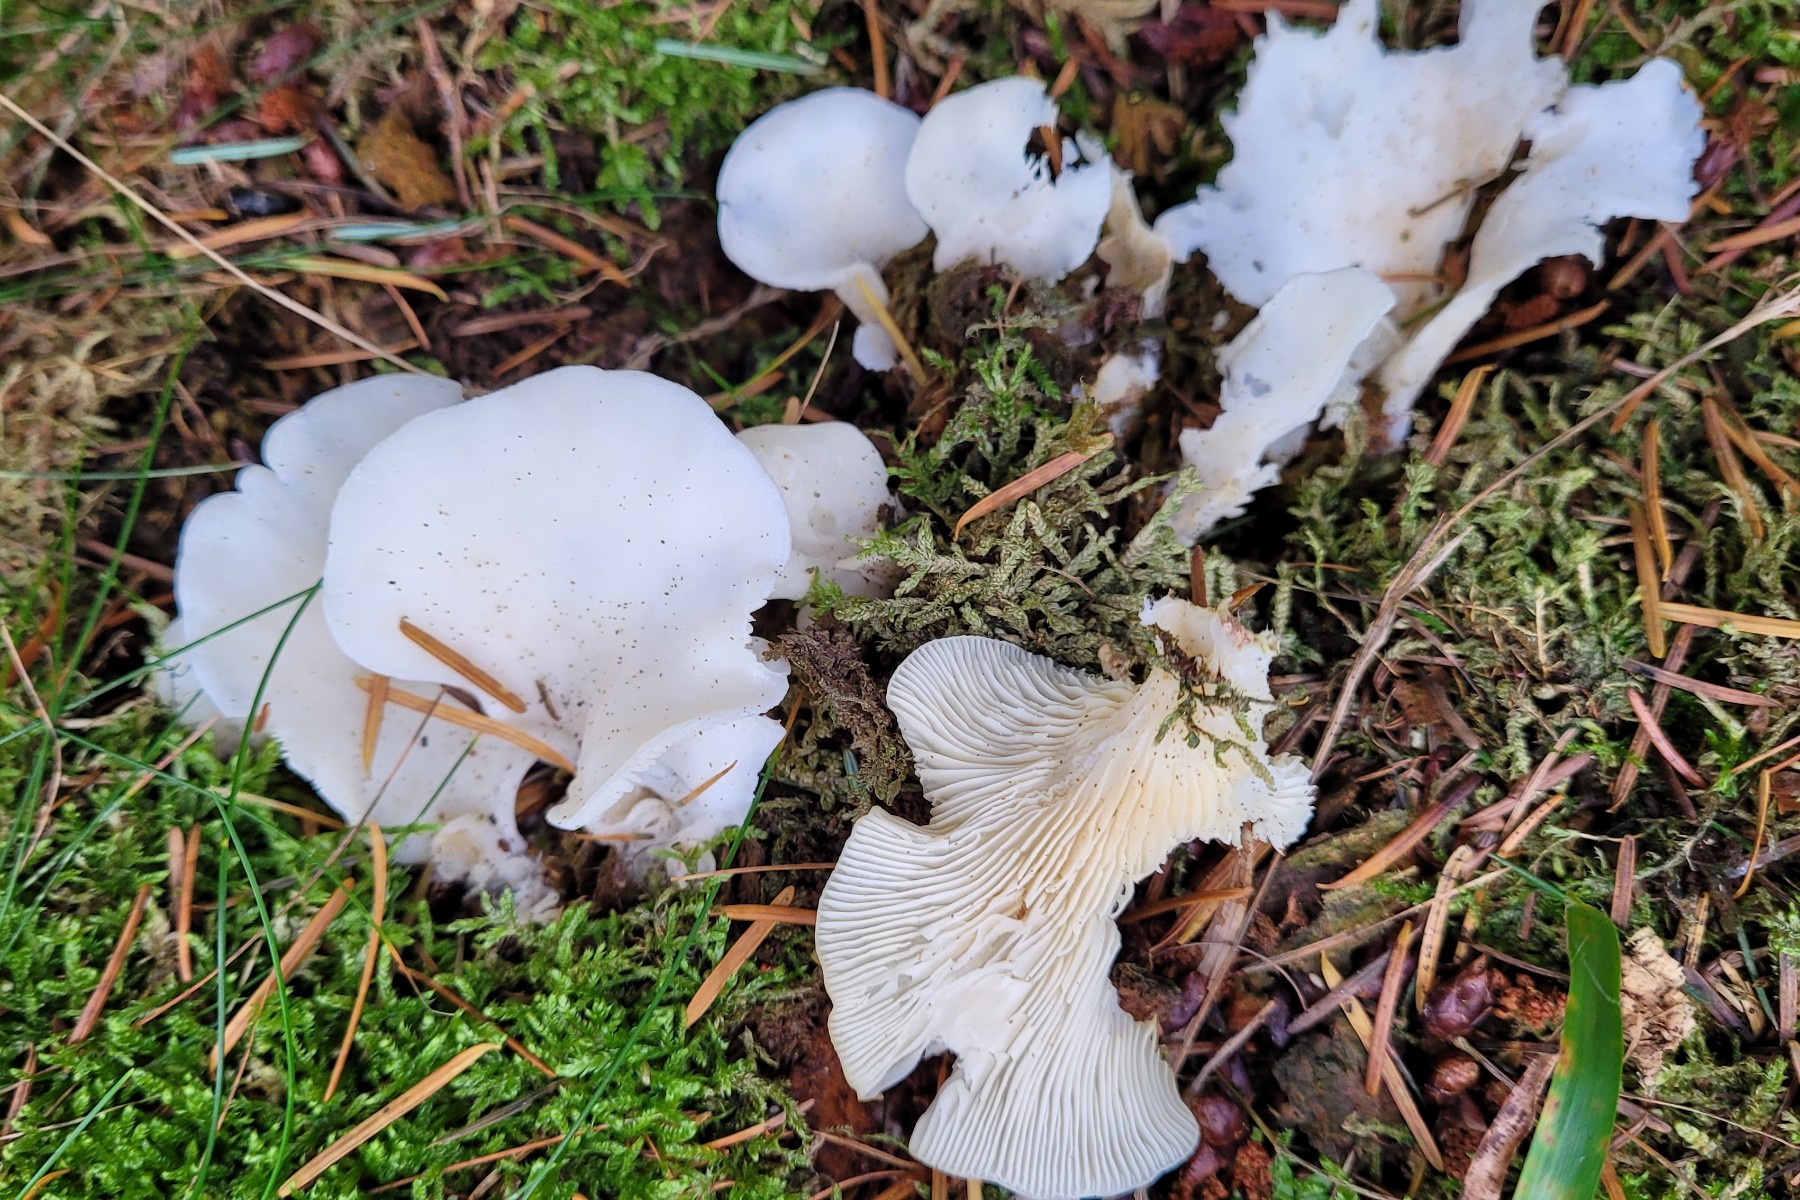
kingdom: Fungi
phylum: Basidiomycota
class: Agaricomycetes
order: Agaricales
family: Marasmiaceae
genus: Pleurocybella
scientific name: Pleurocybella porrigens
